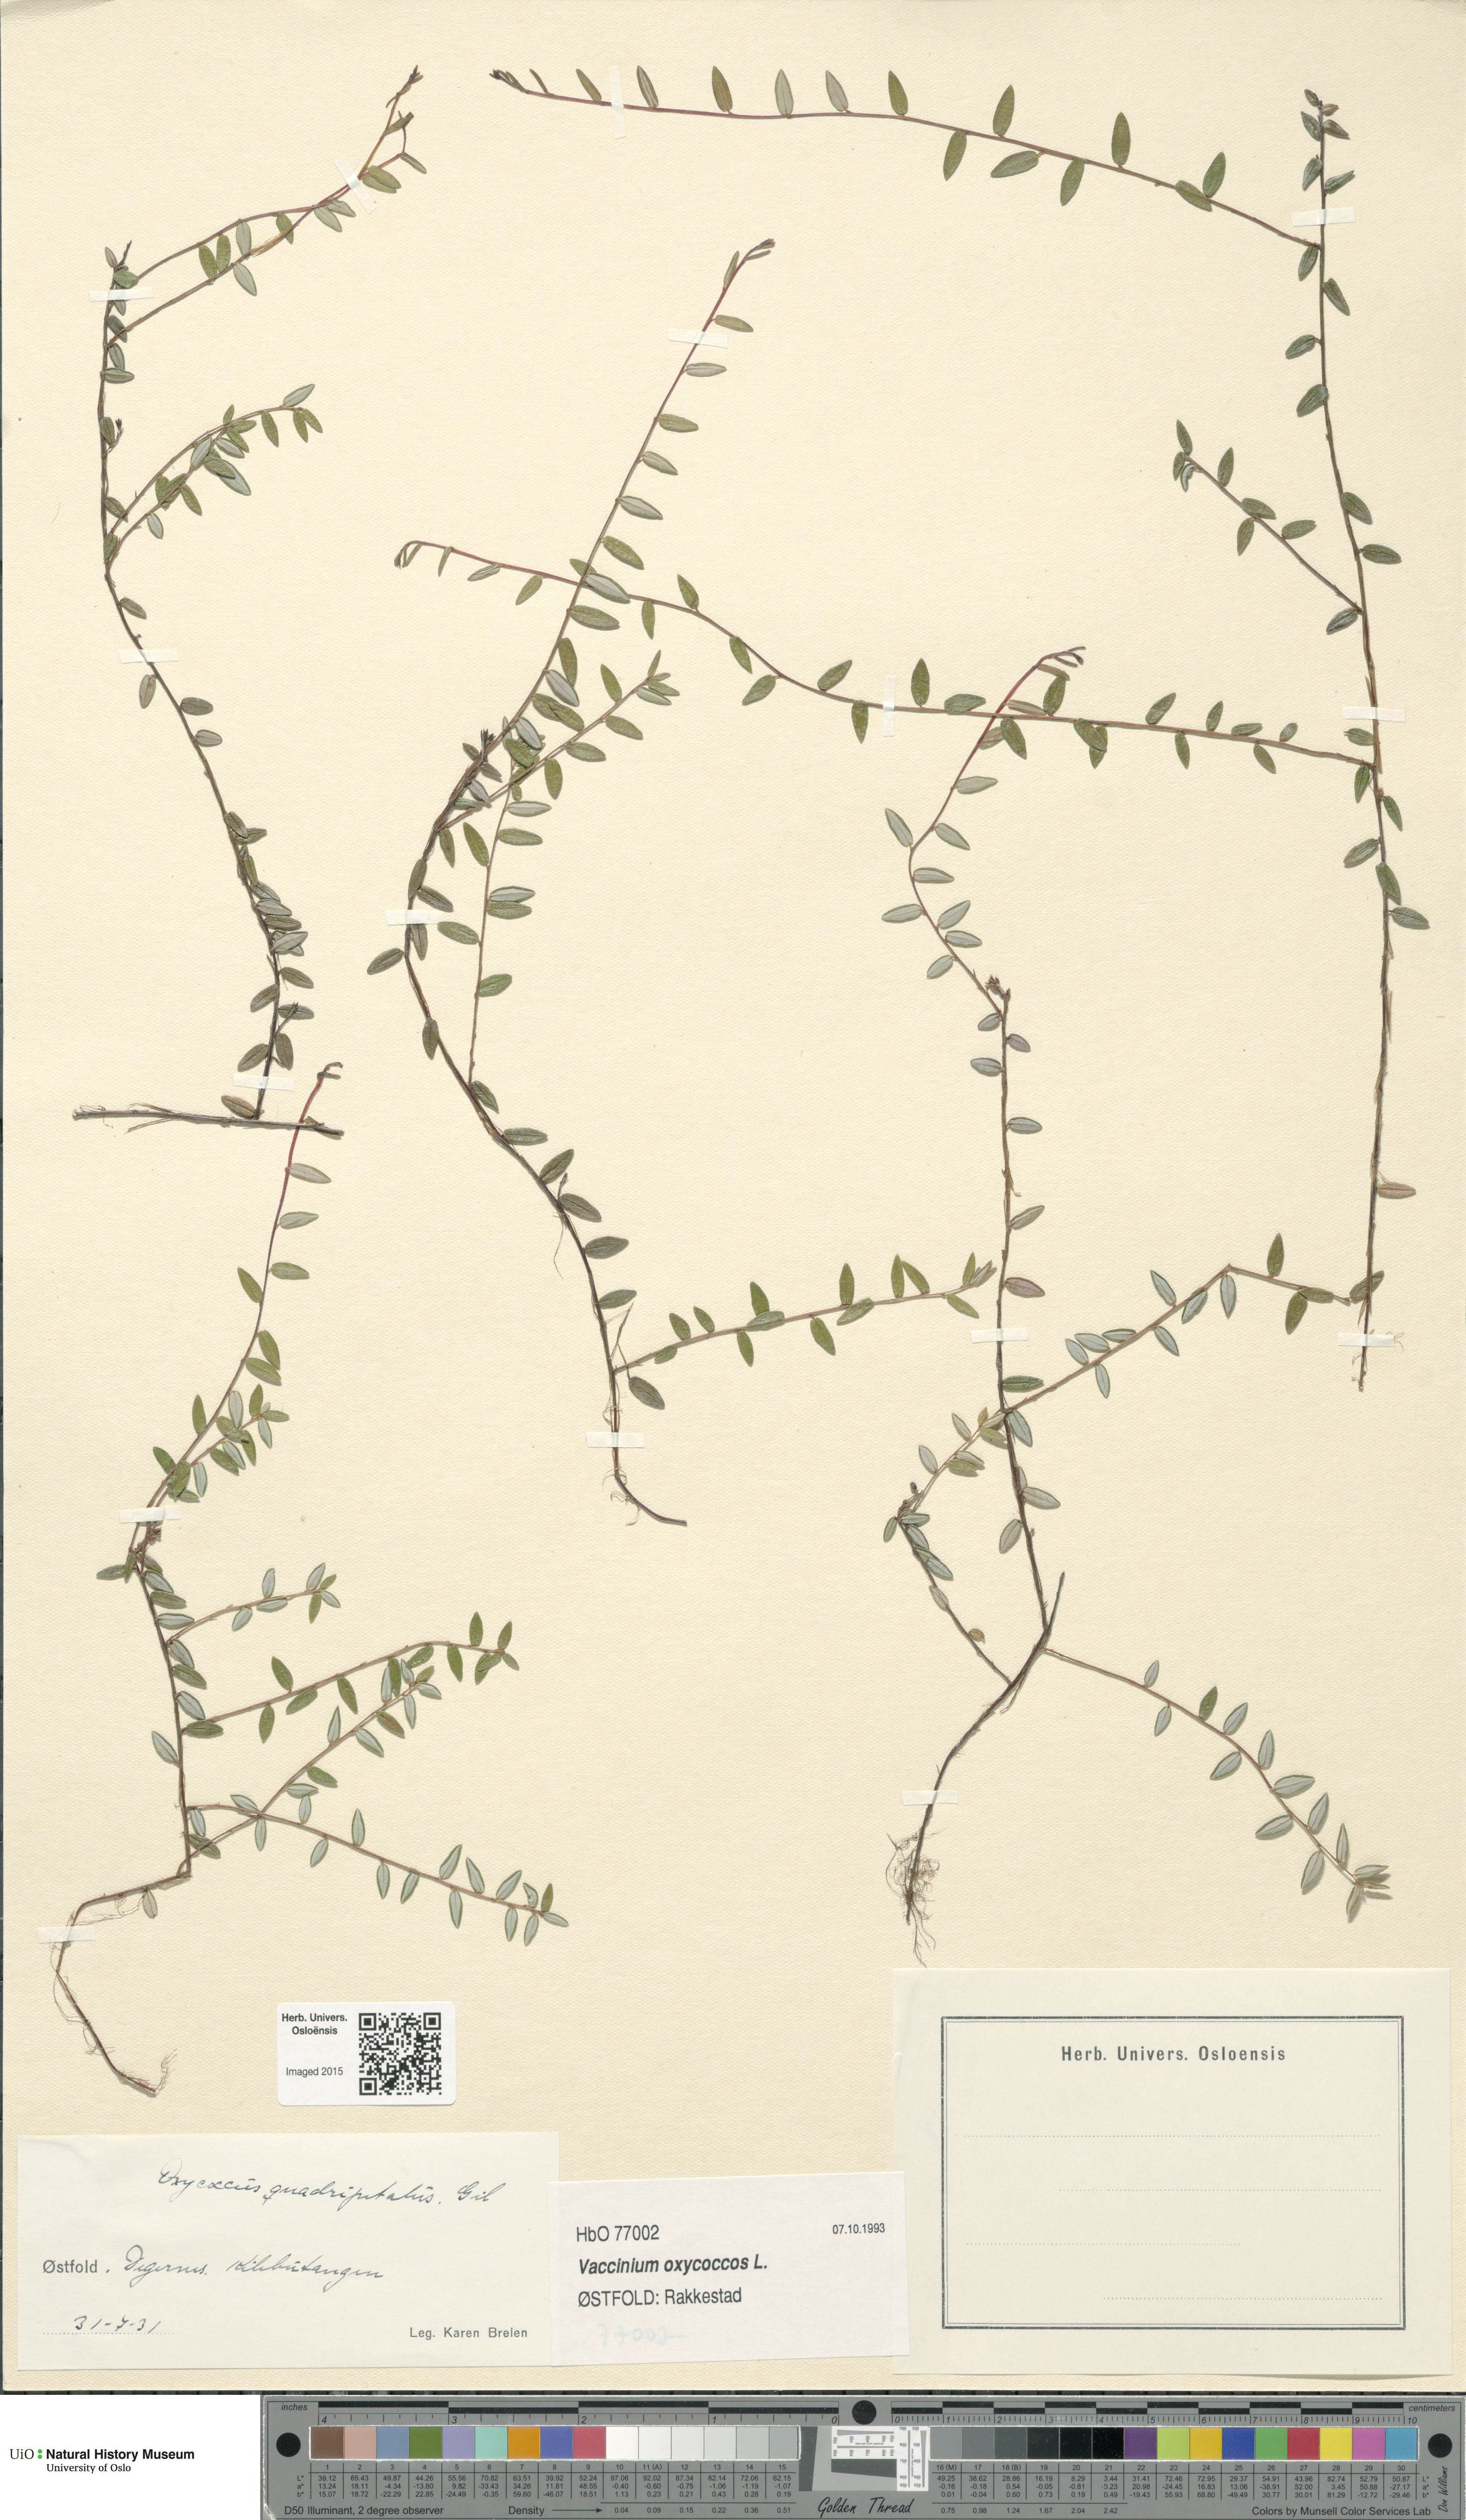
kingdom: Plantae
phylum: Tracheophyta
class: Magnoliopsida
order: Ericales
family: Ericaceae
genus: Vaccinium
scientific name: Vaccinium oxycoccos
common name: Cranberry
